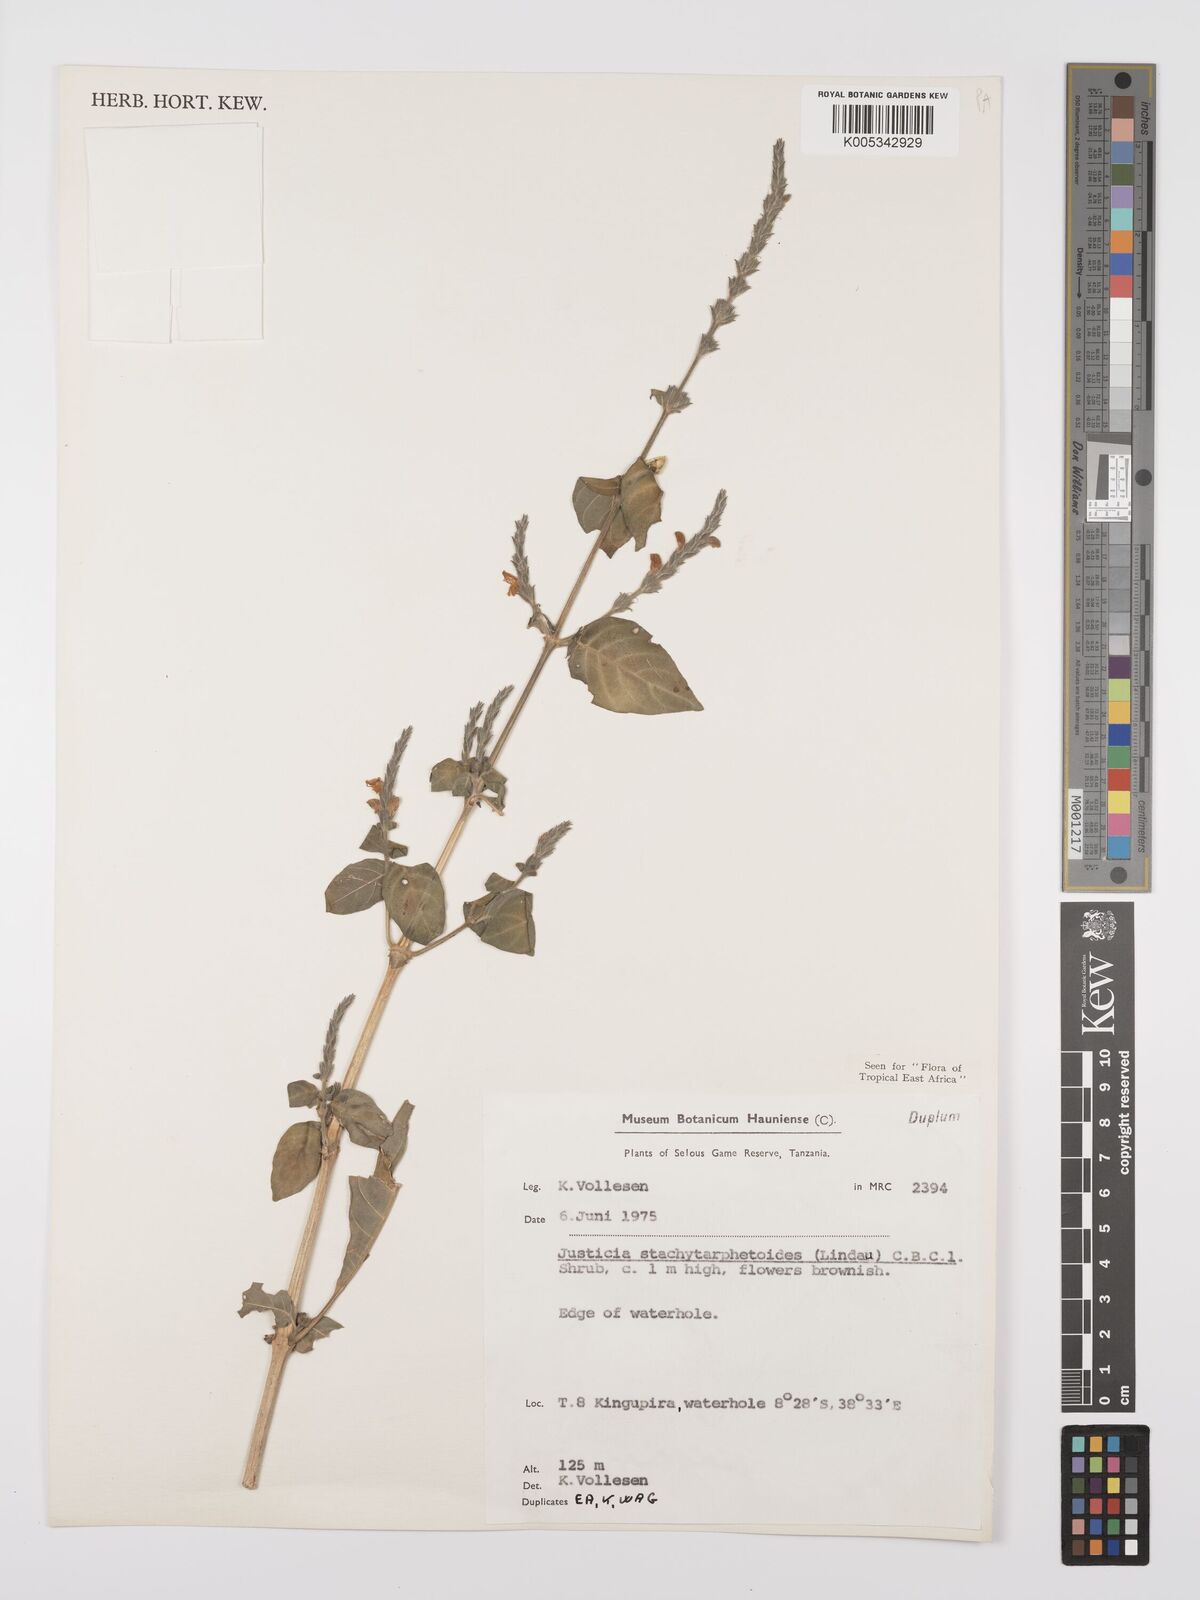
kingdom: Plantae
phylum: Tracheophyta
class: Magnoliopsida
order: Lamiales
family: Acanthaceae
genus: Justicia
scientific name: Justicia stachytarphetoides
